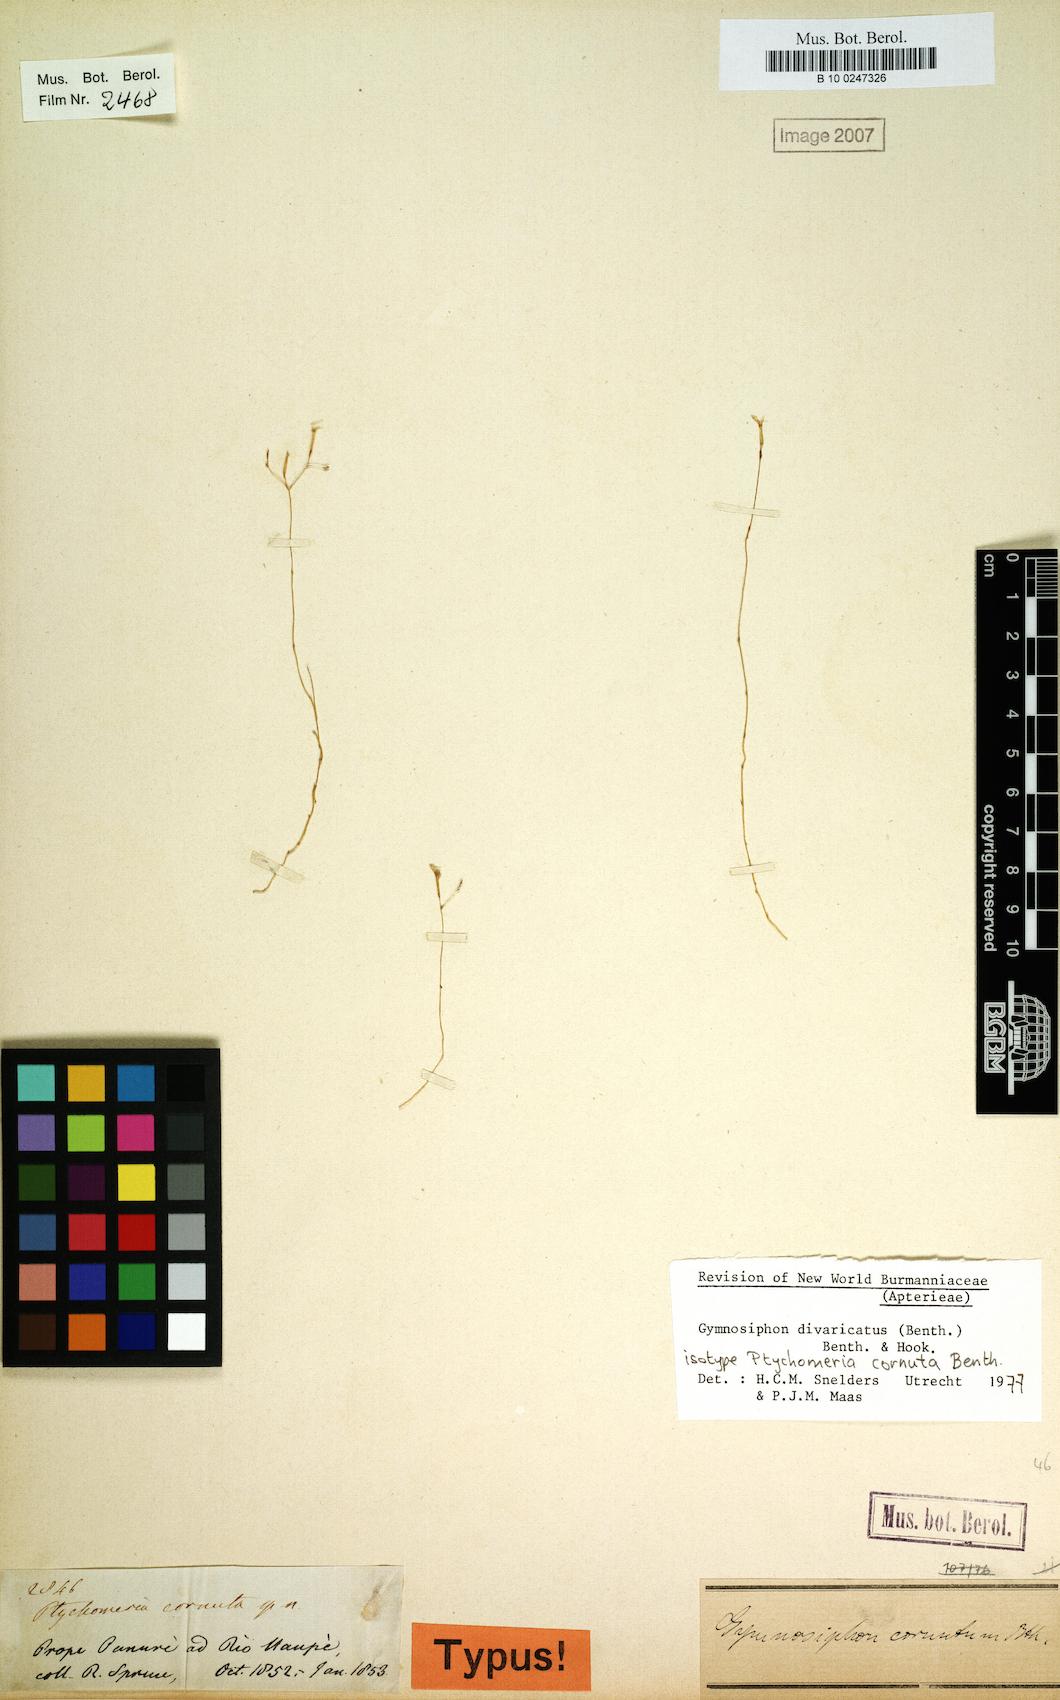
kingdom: Plantae
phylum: Tracheophyta
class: Liliopsida
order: Dioscoreales
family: Burmanniaceae
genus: Gymnosiphon
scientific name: Gymnosiphon divaricatus
